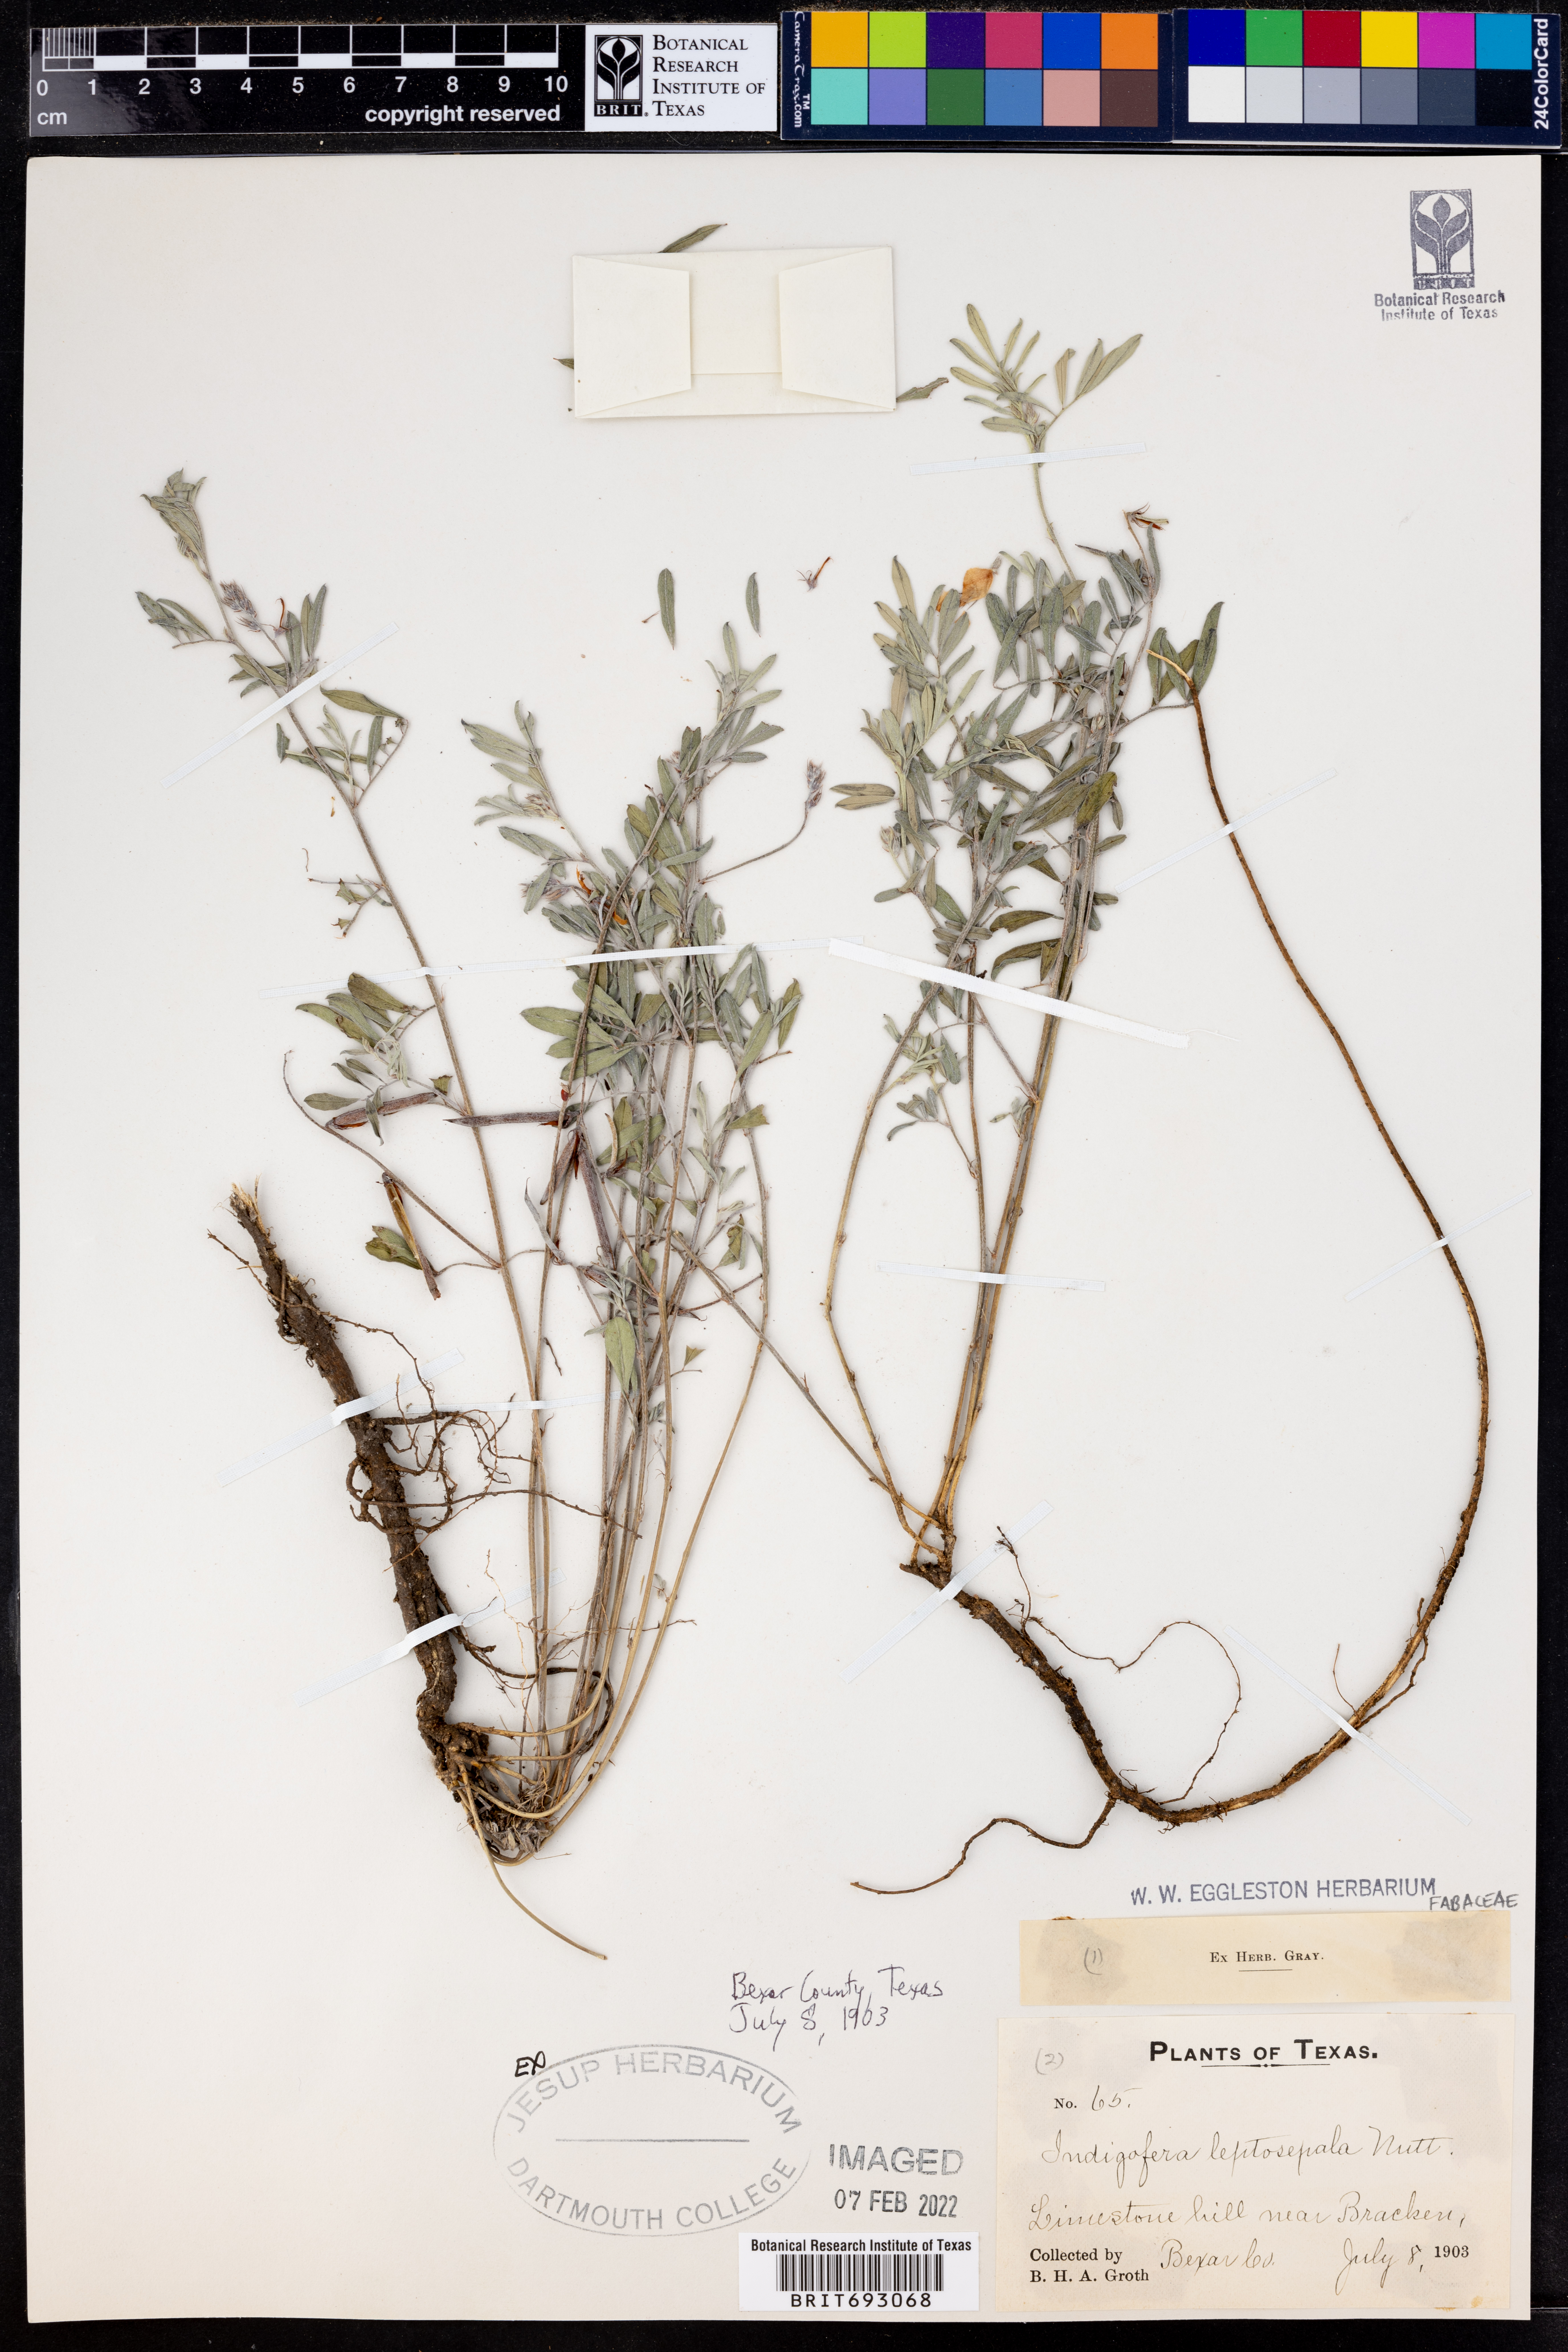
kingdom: Plantae
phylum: Tracheophyta
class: Magnoliopsida
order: Fabales
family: Fabaceae
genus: Indigofera
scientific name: Indigofera argutidens
